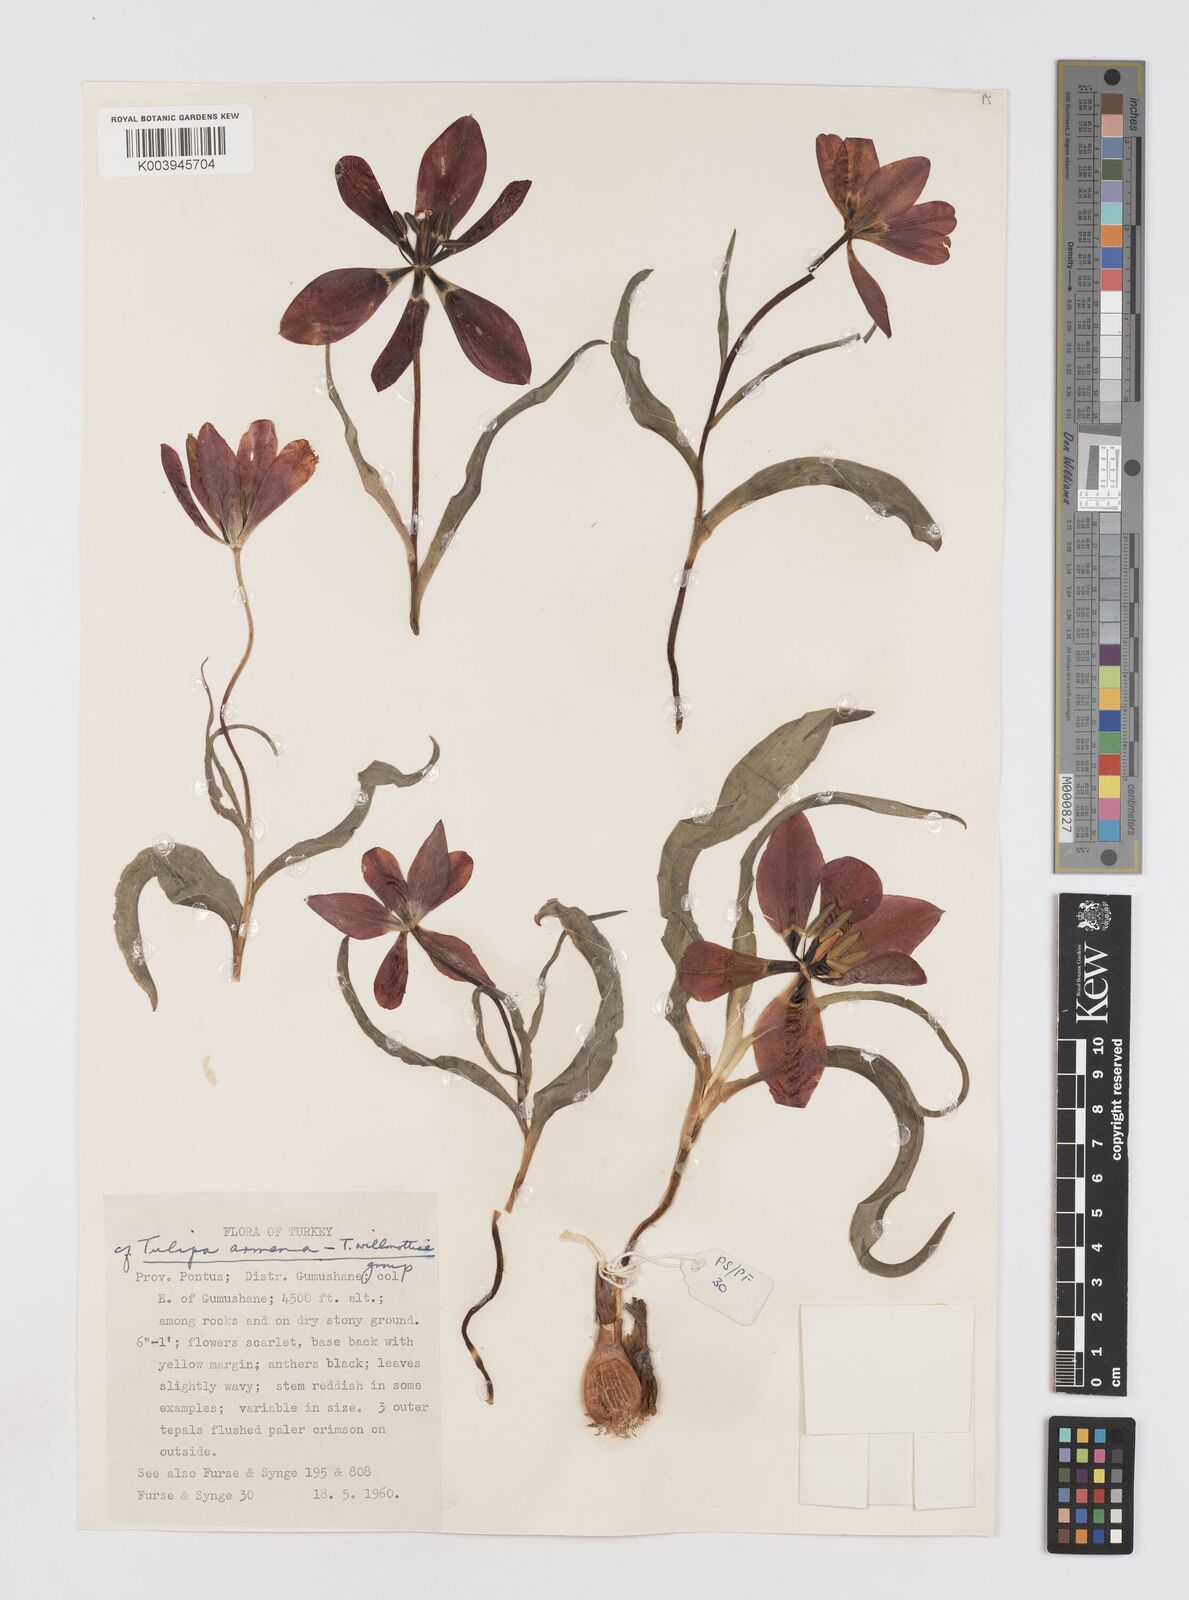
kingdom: Plantae
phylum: Tracheophyta
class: Liliopsida
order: Liliales
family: Liliaceae
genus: Tulipa
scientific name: Tulipa armena
